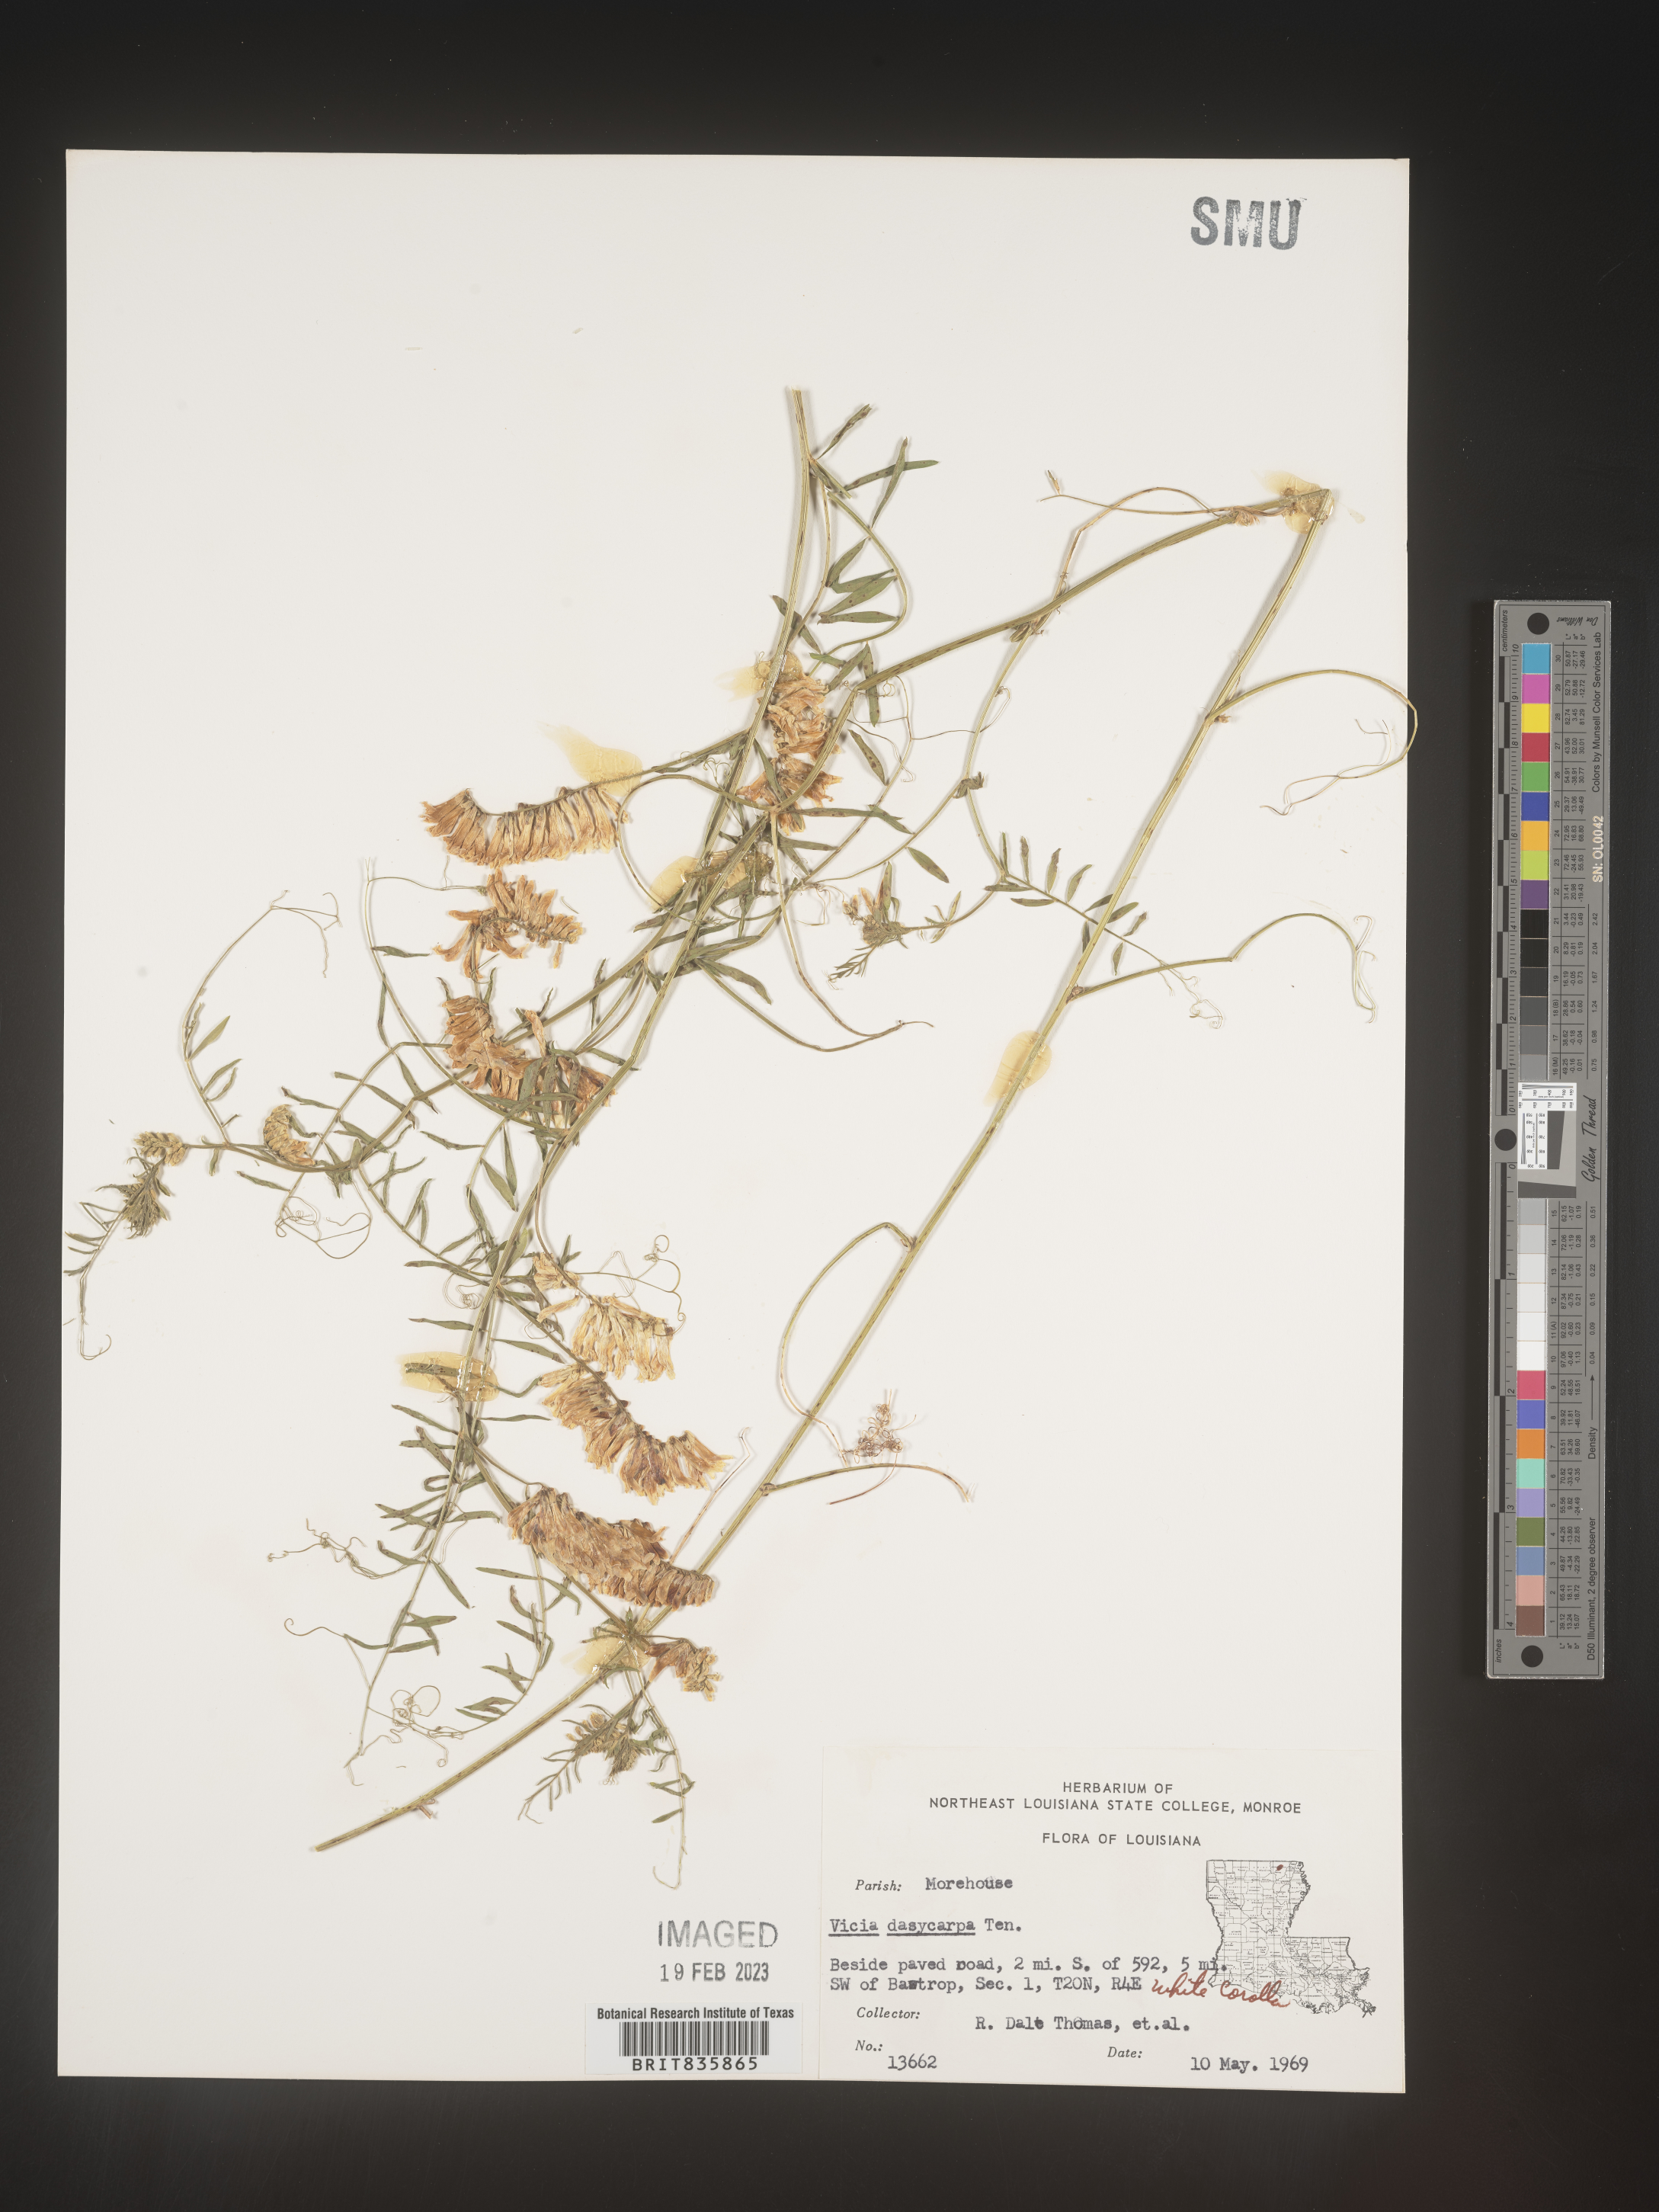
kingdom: Plantae
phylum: Tracheophyta
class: Magnoliopsida
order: Fabales
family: Fabaceae
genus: Vicia
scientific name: Vicia villosa
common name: Fodder vetch
